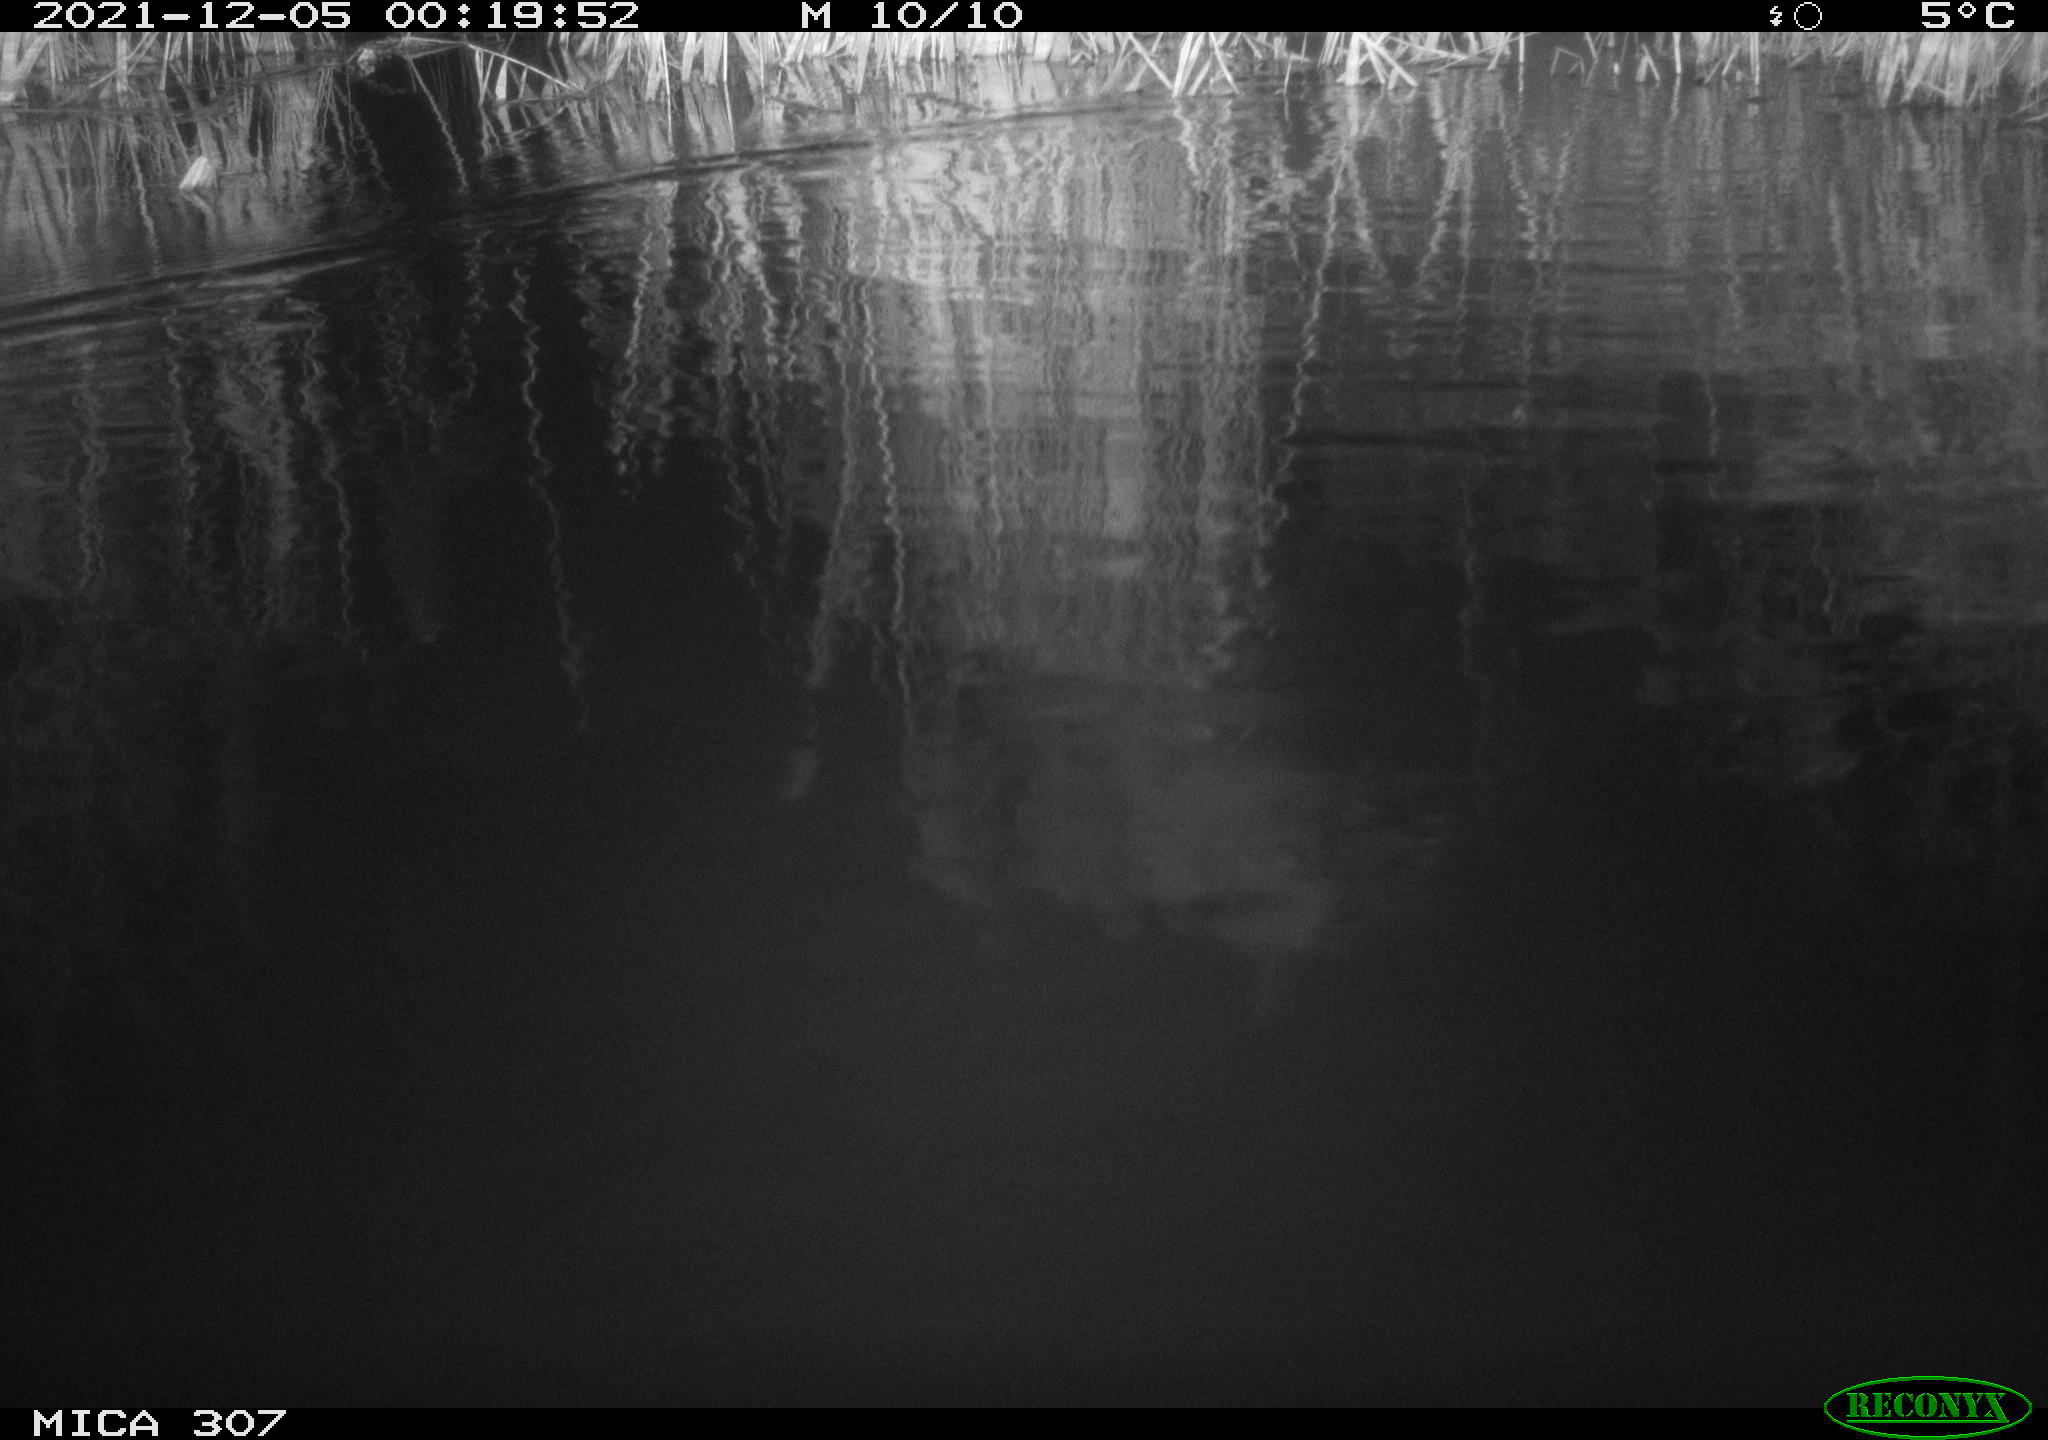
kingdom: Animalia
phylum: Chordata
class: Mammalia
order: Rodentia
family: Muridae
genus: Rattus
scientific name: Rattus norvegicus
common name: Brown rat
